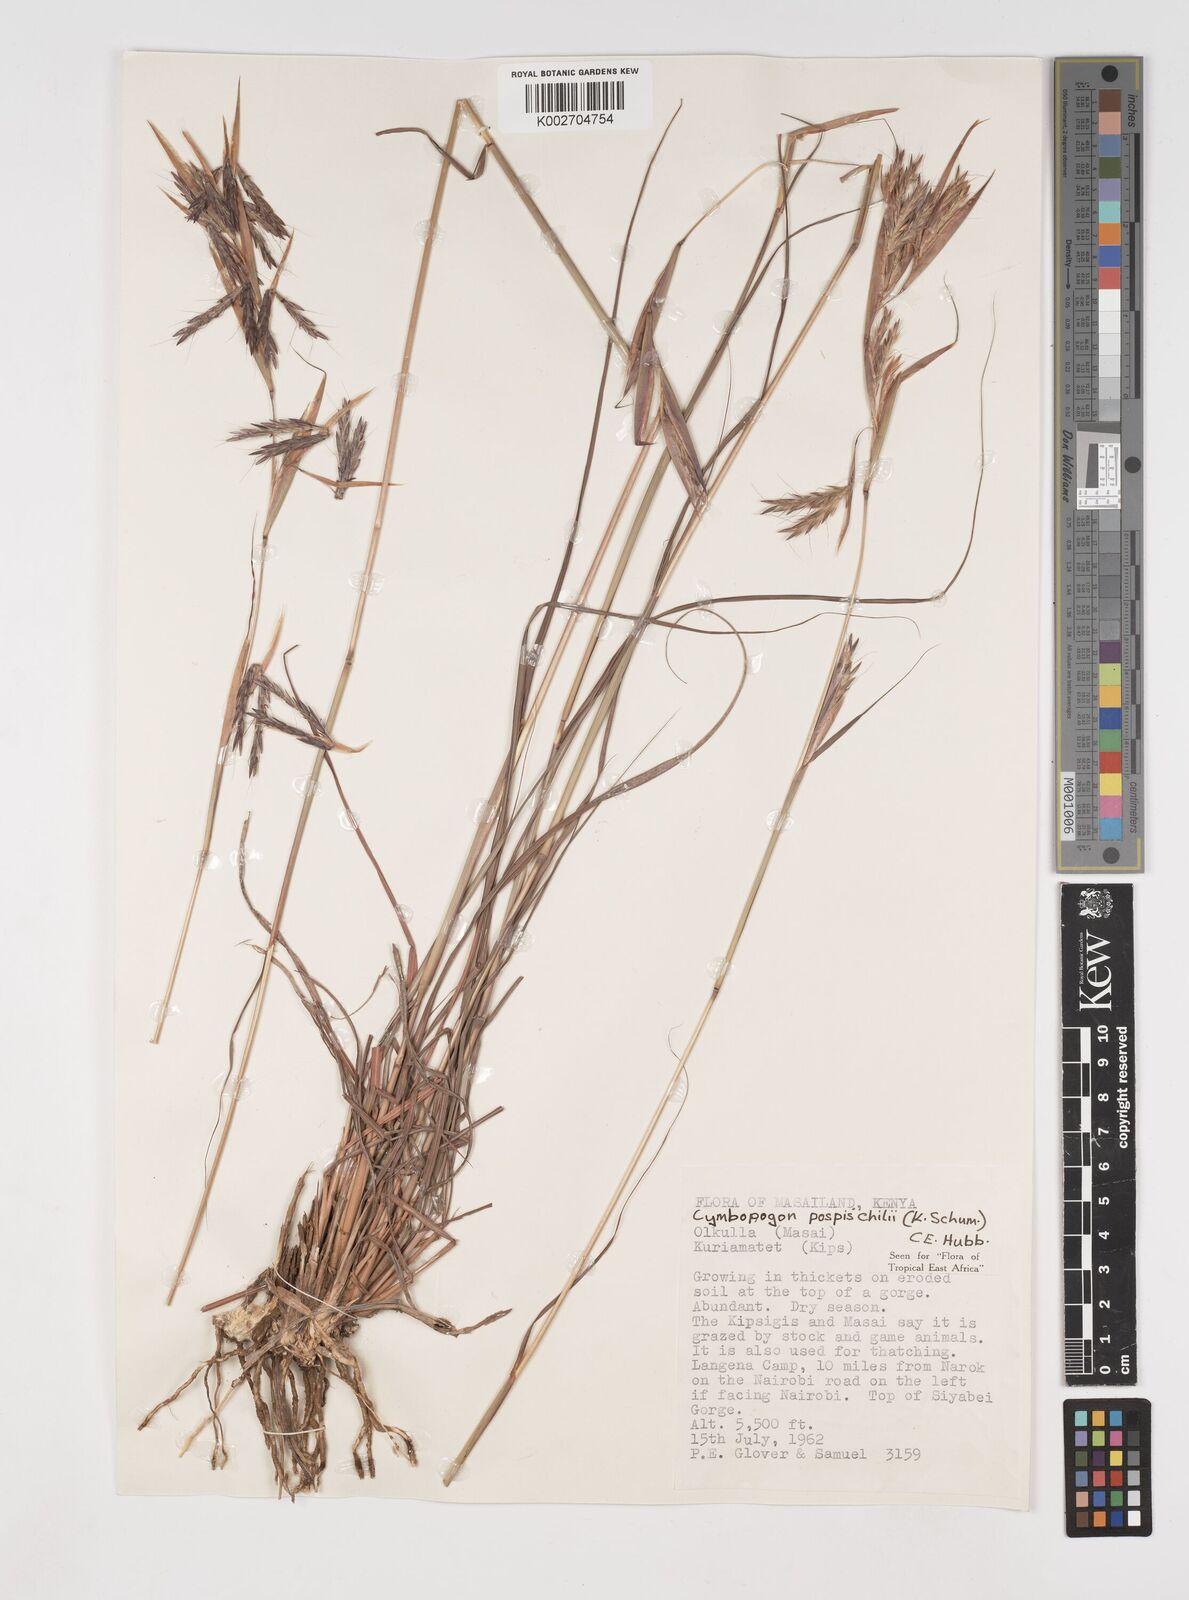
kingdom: Plantae
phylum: Tracheophyta
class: Liliopsida
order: Poales
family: Poaceae
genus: Cymbopogon
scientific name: Cymbopogon pospischilii
